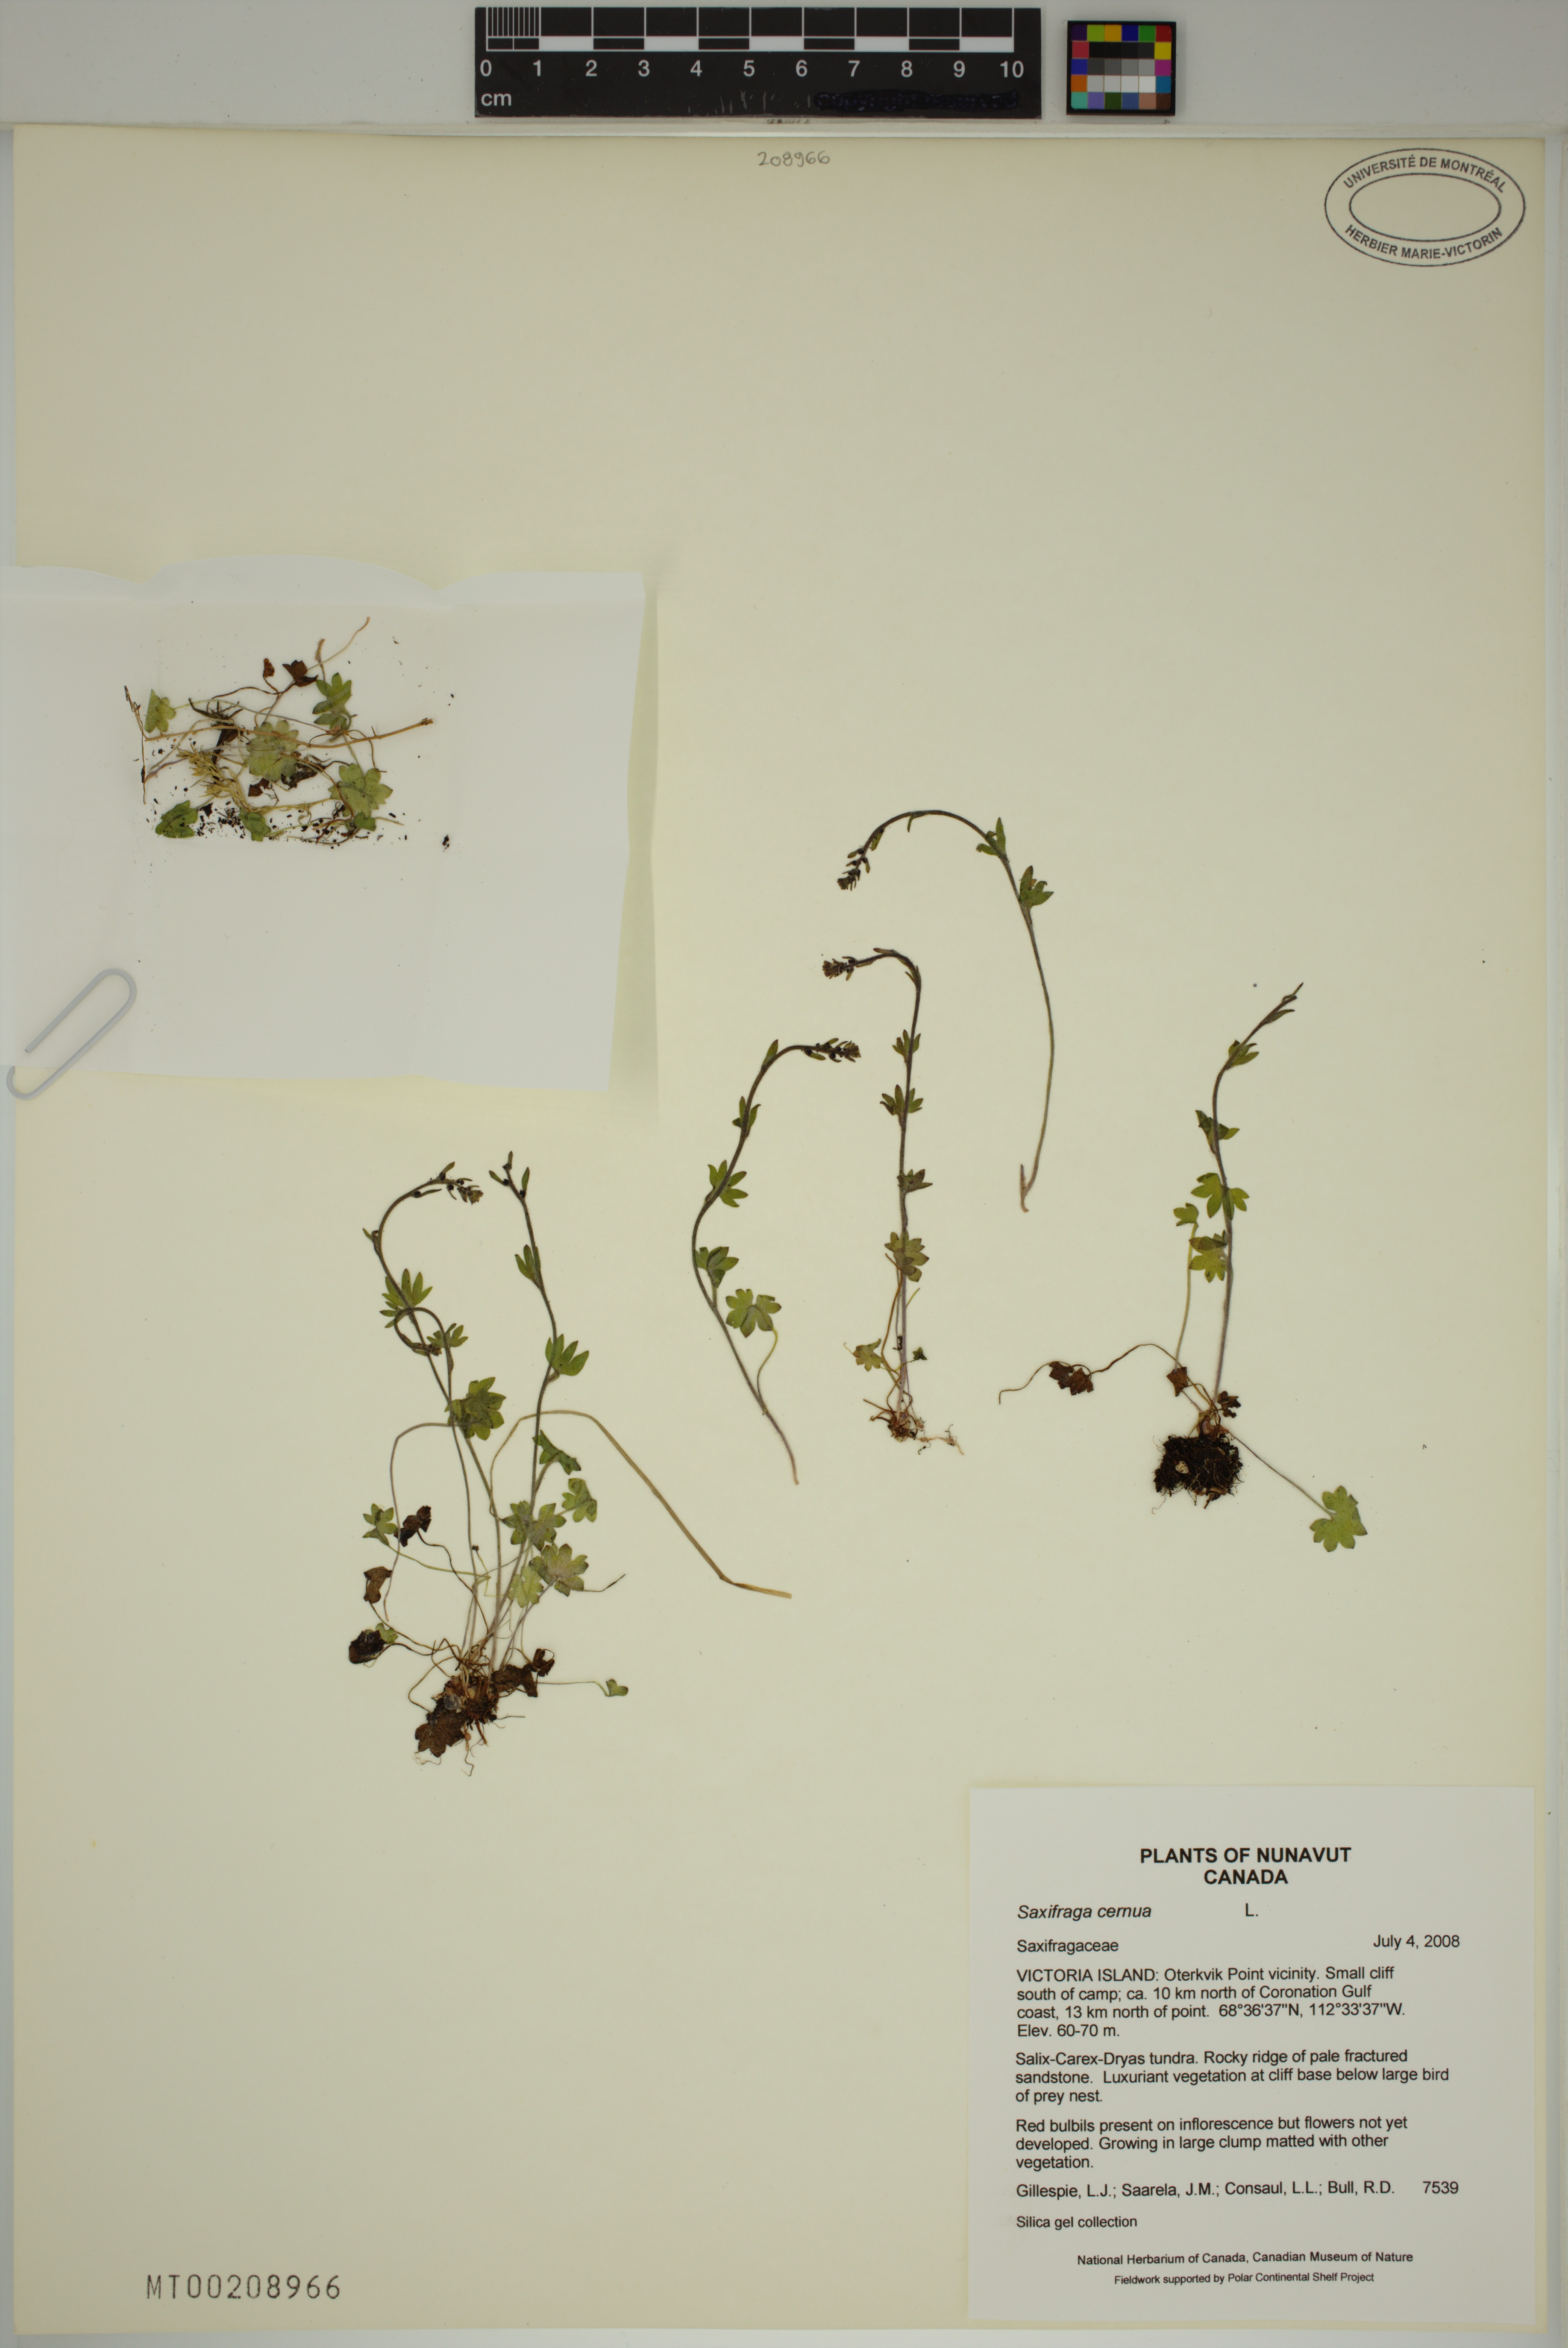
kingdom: Plantae
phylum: Tracheophyta
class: Magnoliopsida
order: Saxifragales
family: Saxifragaceae
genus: Saxifraga
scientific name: Saxifraga cernua
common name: Drooping saxifrage
